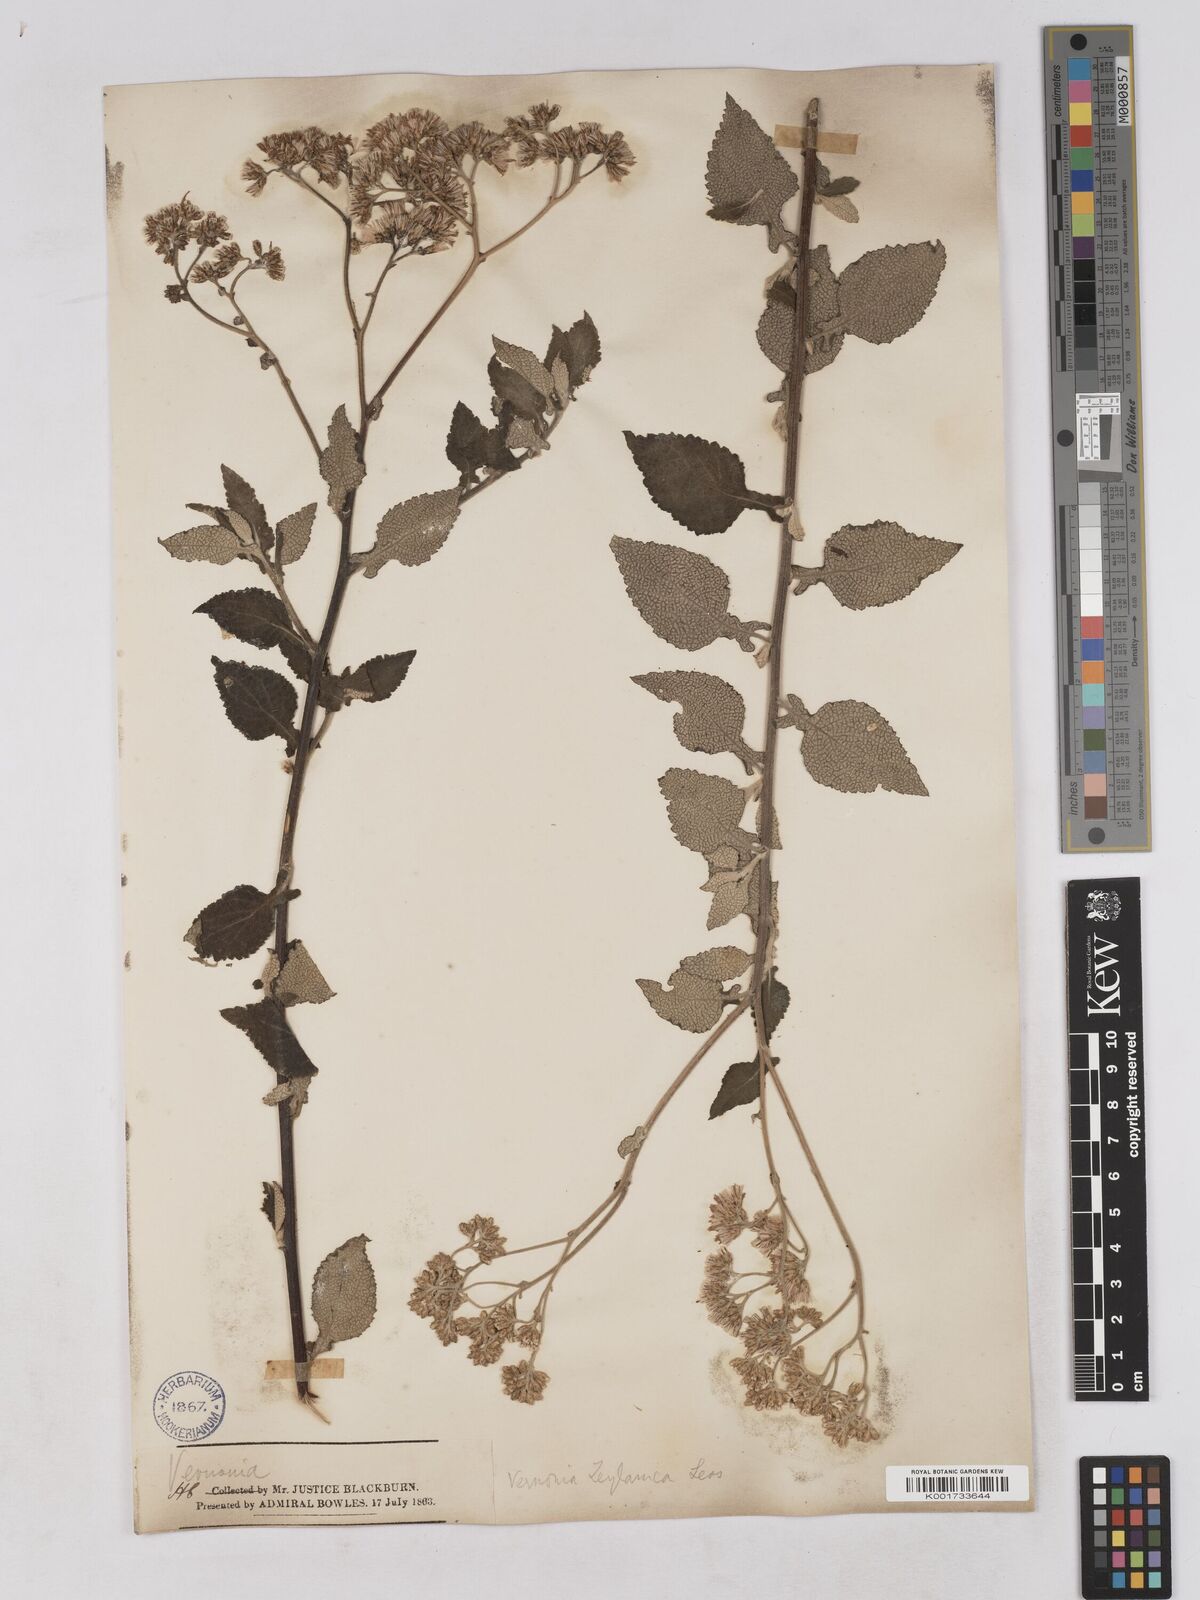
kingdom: Plantae
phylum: Tracheophyta
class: Magnoliopsida
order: Asterales
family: Asteraceae
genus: Jeffreycia
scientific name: Jeffreycia zeylanica
